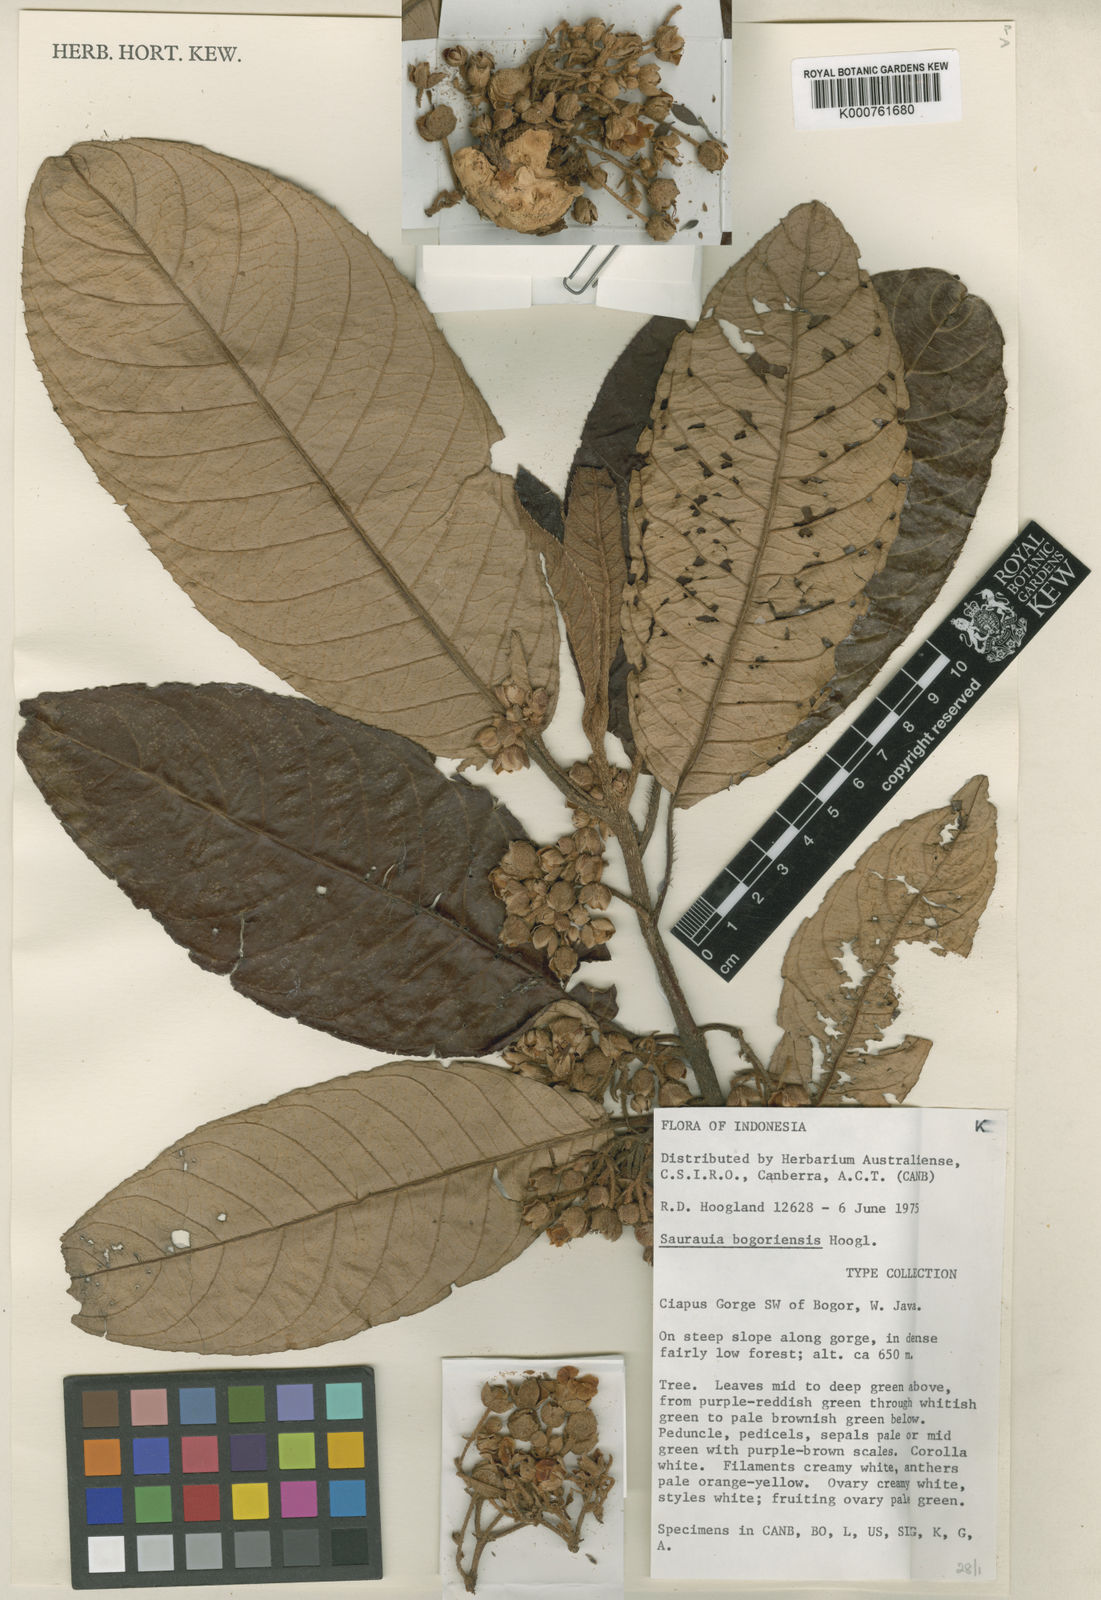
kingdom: Plantae
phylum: Tracheophyta
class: Magnoliopsida
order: Ericales
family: Actinidiaceae
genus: Saurauia
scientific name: Saurauia bogoriensis
